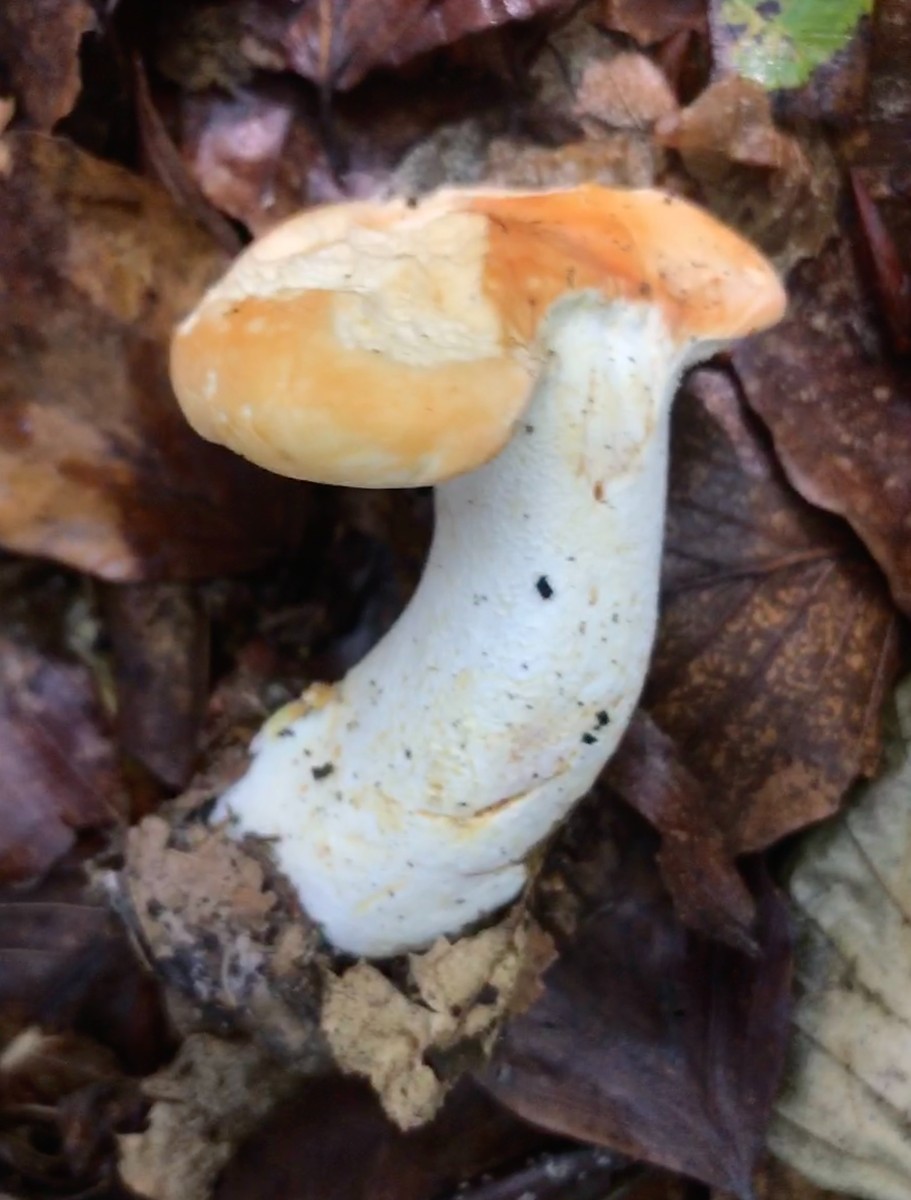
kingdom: Fungi
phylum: Basidiomycota
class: Agaricomycetes
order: Cantharellales
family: Hydnaceae
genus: Hydnum
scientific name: Hydnum
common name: pigsvamp
